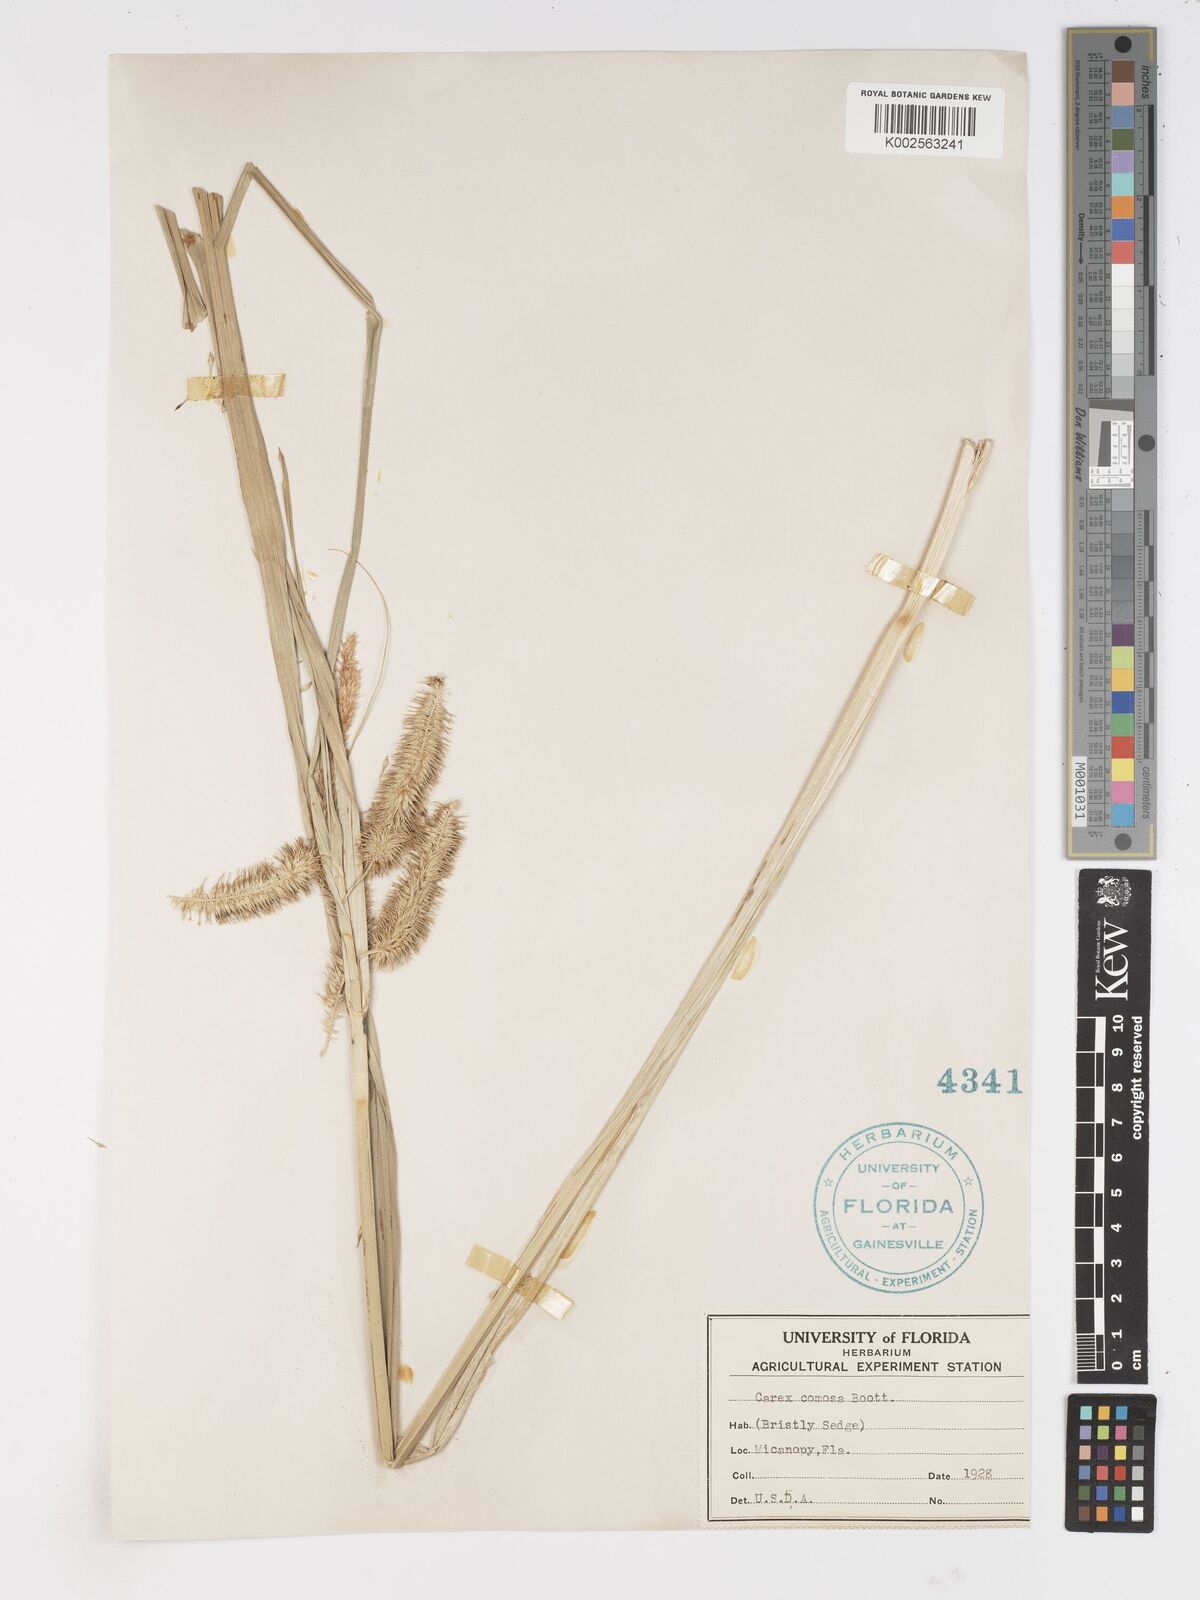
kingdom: Plantae
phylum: Tracheophyta
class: Liliopsida
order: Poales
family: Cyperaceae
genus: Carex
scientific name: Carex comosa
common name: Bristly sedge
